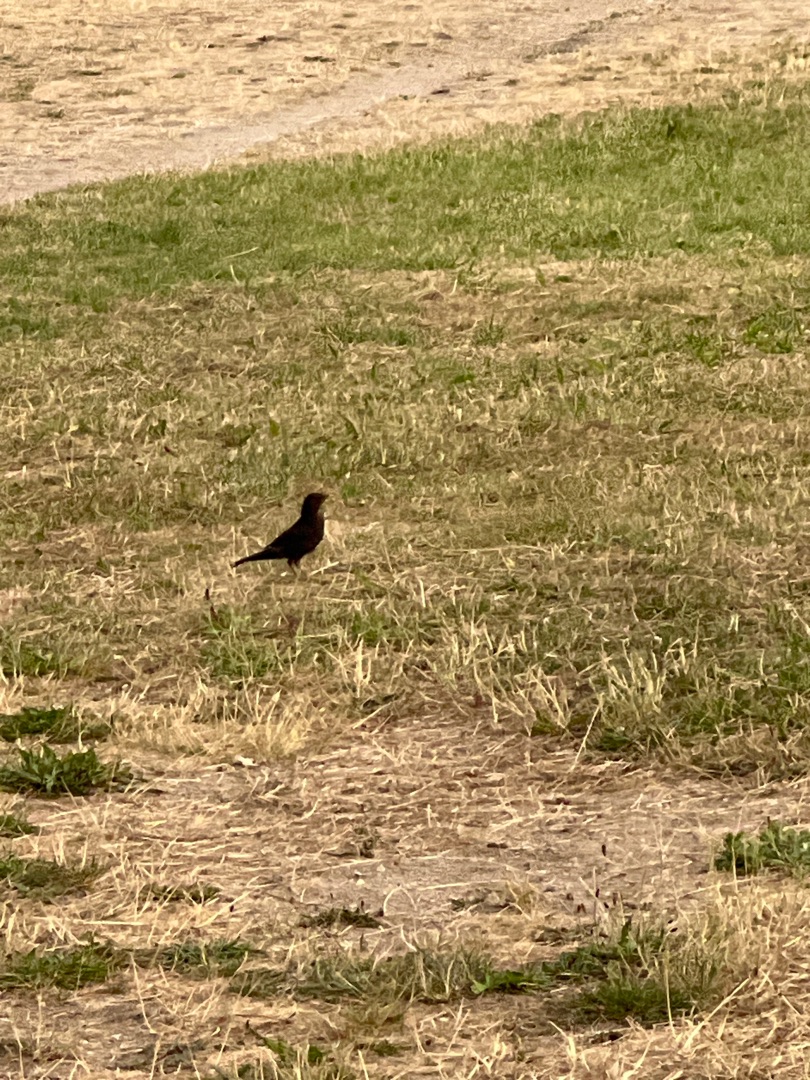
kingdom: Animalia
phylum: Chordata
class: Aves
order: Passeriformes
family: Turdidae
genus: Turdus
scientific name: Turdus merula
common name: Solsort
